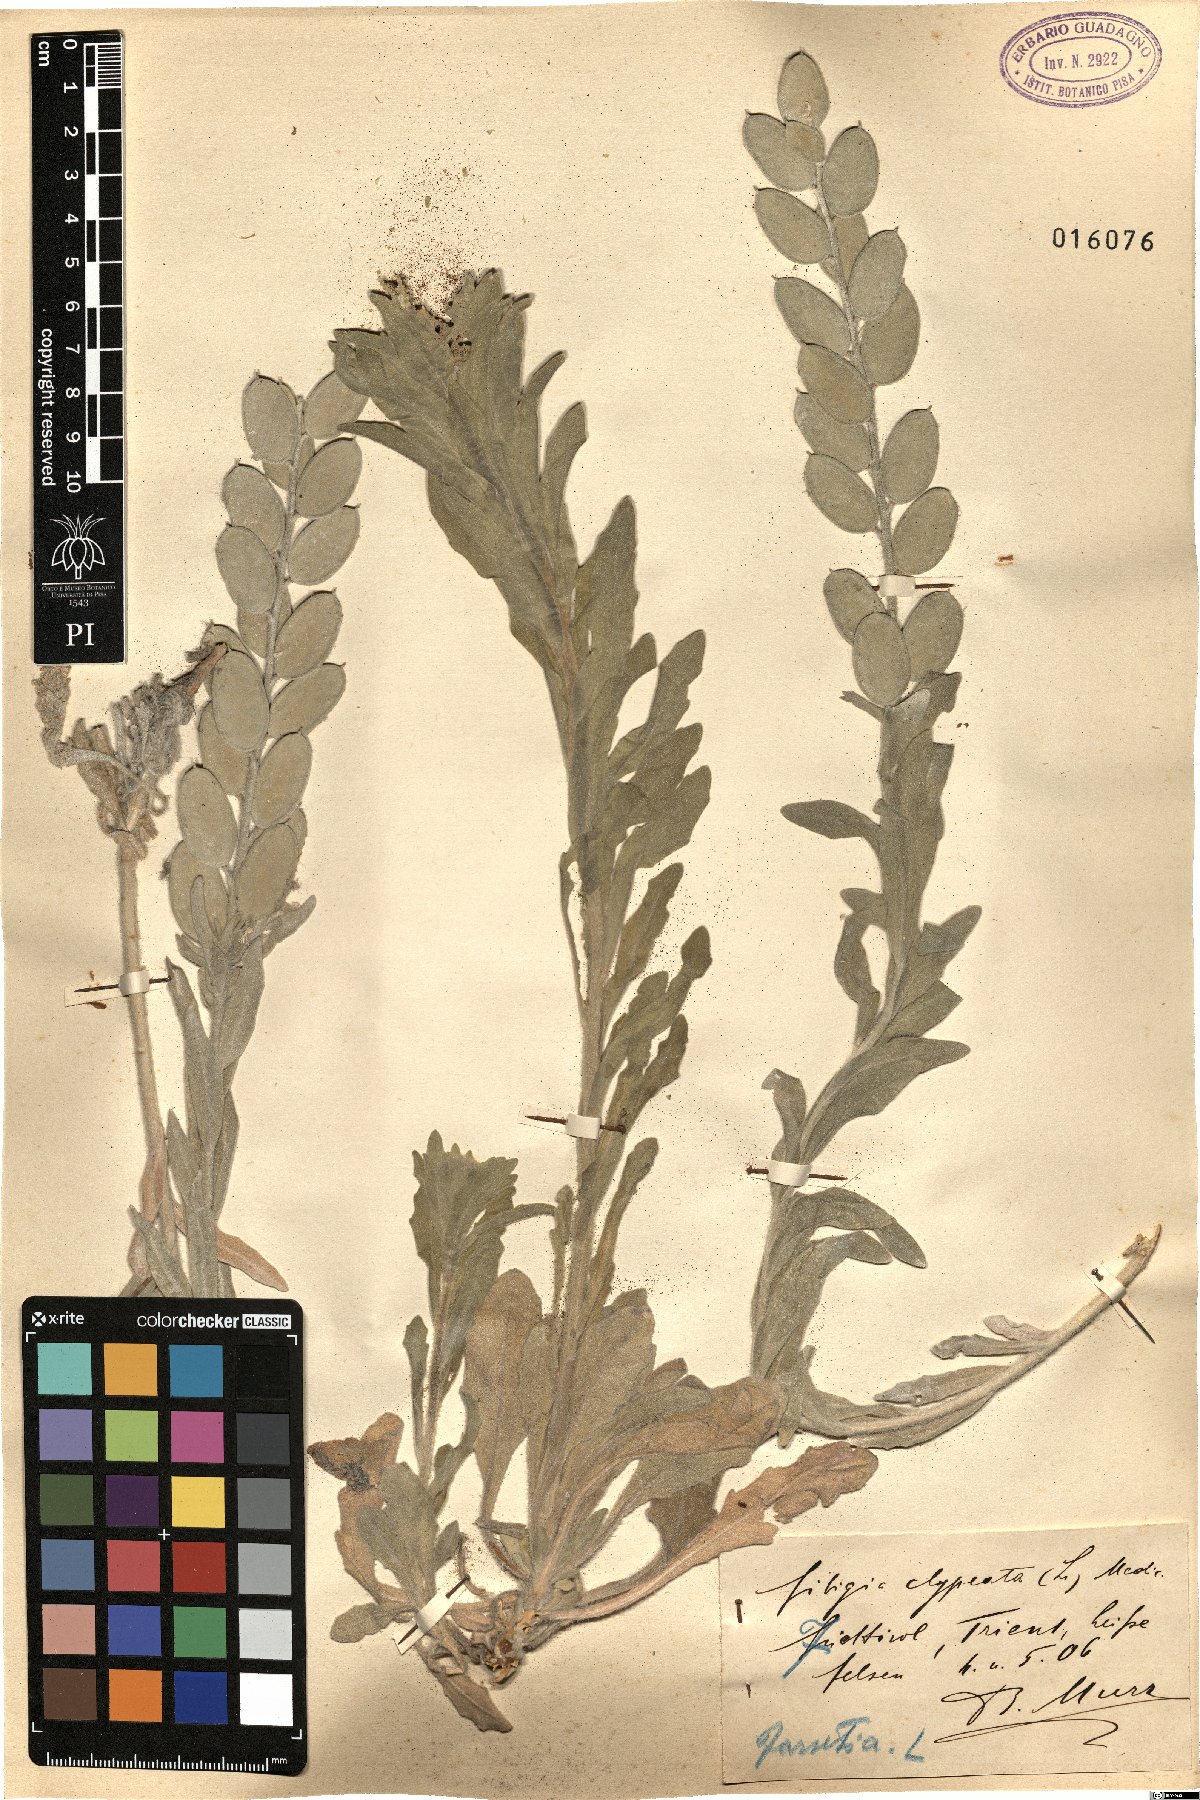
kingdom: Plantae
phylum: Tracheophyta
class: Magnoliopsida
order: Brassicales
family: Brassicaceae
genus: Fibigia
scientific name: Fibigia clypeata
